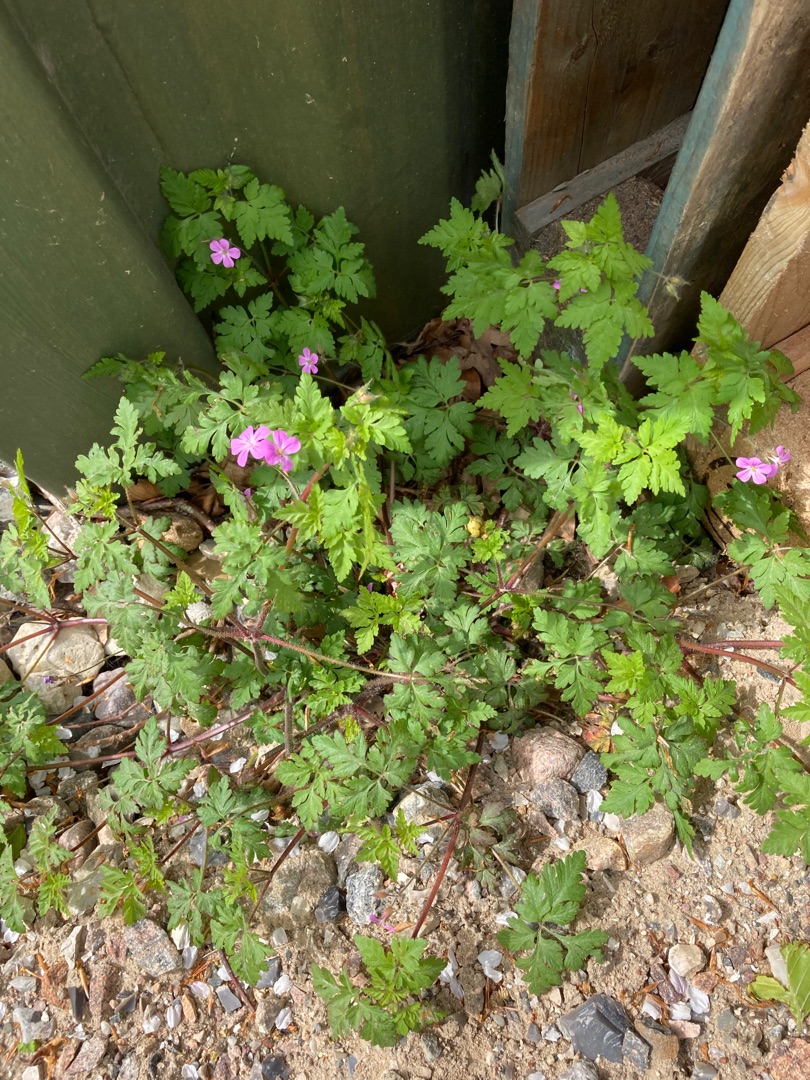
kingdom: Plantae
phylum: Tracheophyta
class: Magnoliopsida
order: Geraniales
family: Geraniaceae
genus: Geranium
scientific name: Geranium robertianum
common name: Stinkende storkenæb
